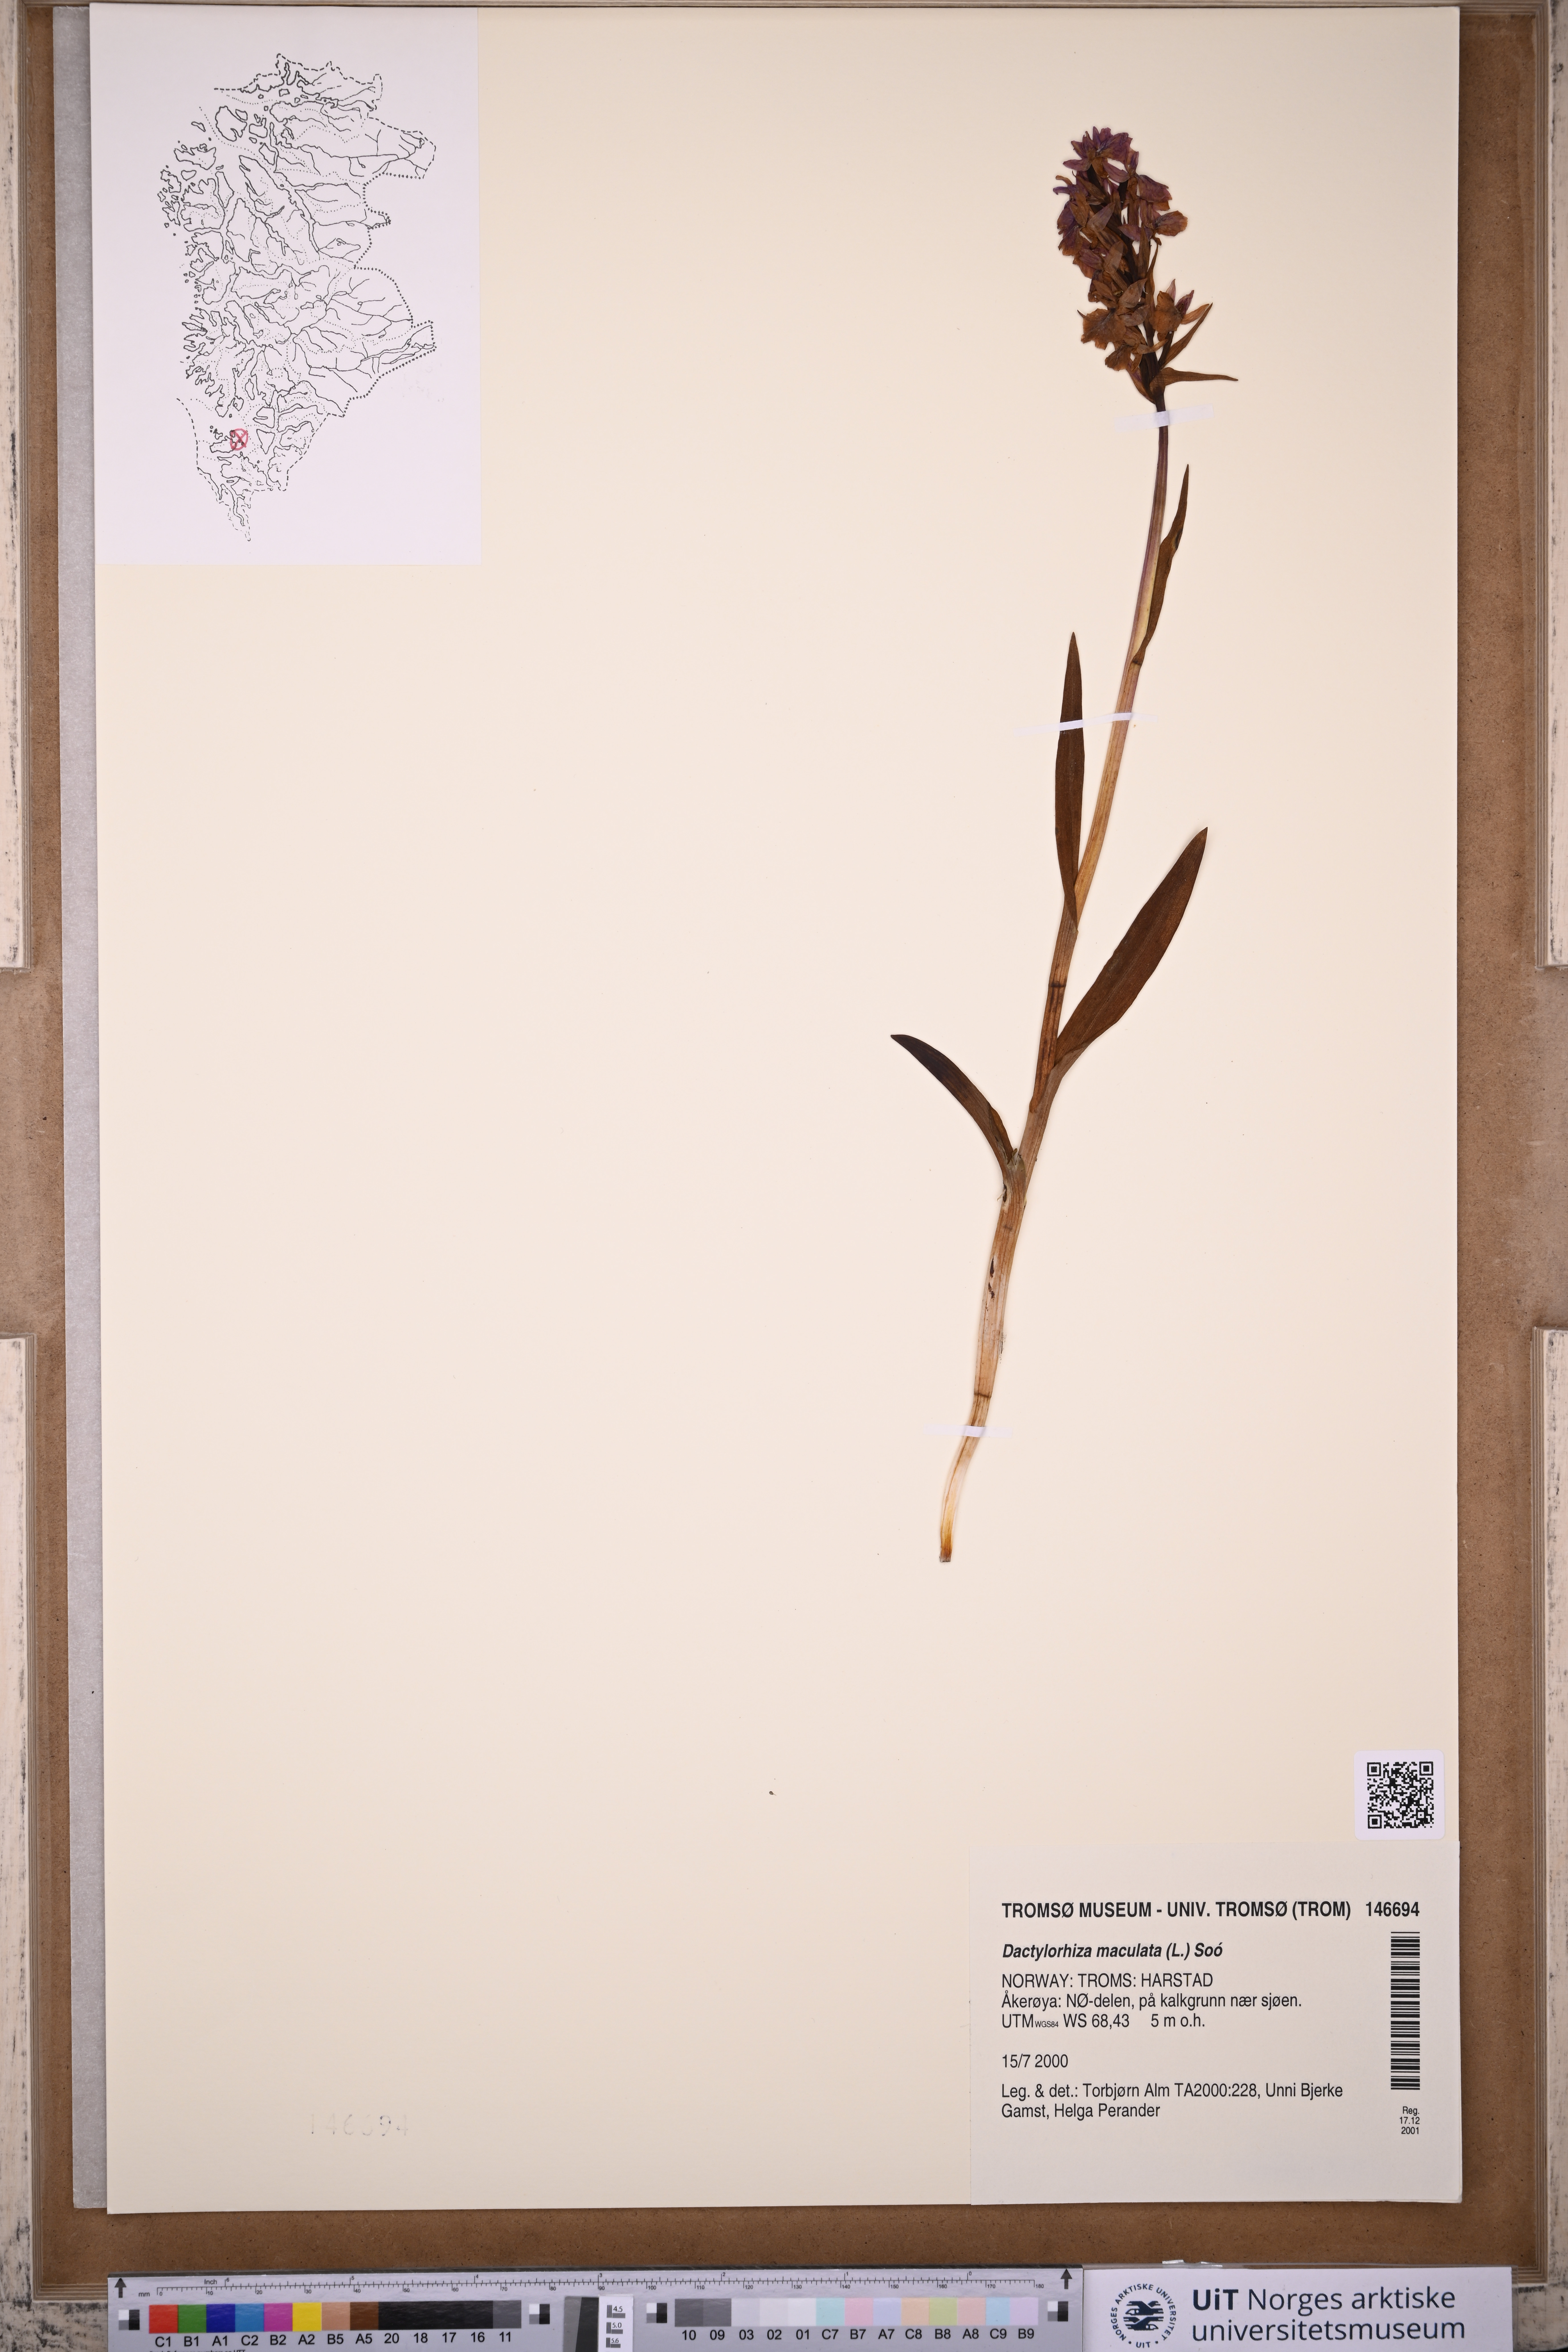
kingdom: Plantae
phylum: Tracheophyta
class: Liliopsida
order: Asparagales
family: Orchidaceae
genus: Dactylorhiza
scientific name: Dactylorhiza maculata
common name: Heath spotted-orchid
